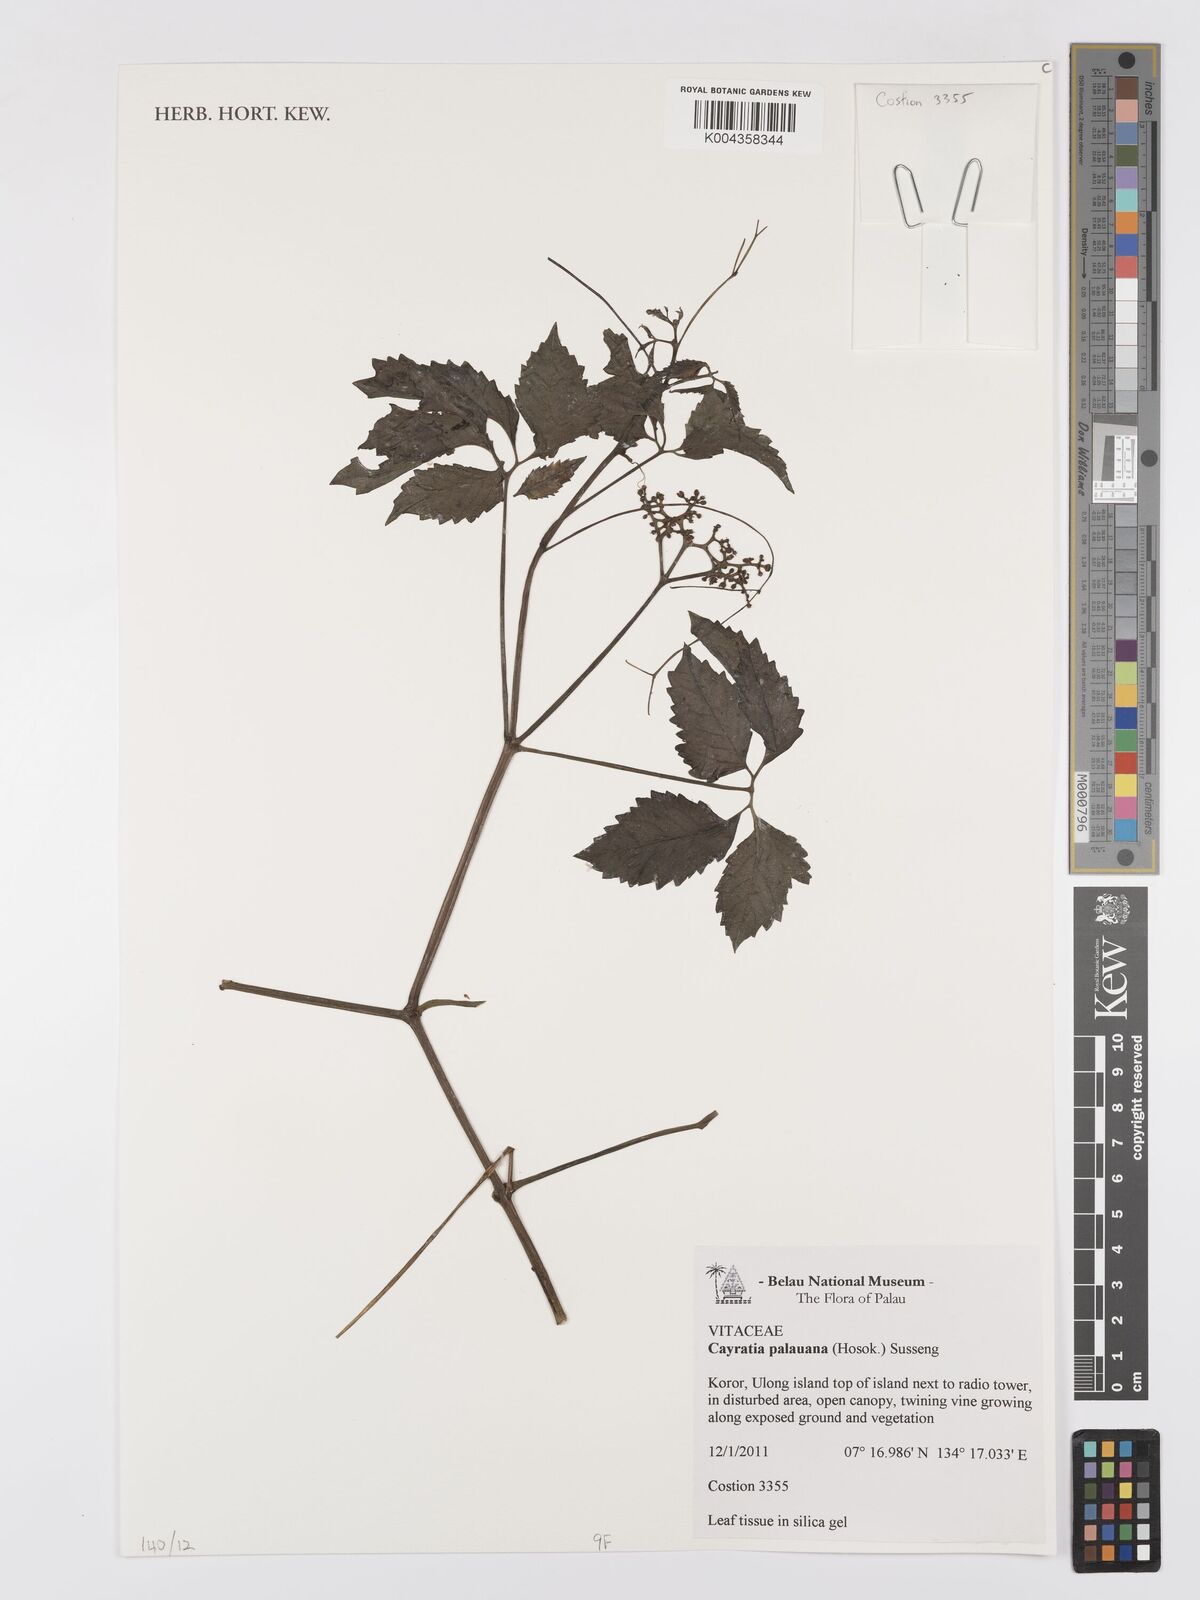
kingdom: Plantae
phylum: Tracheophyta
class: Magnoliopsida
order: Vitales
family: Vitaceae
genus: Cayratia
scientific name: Cayratia palauana
